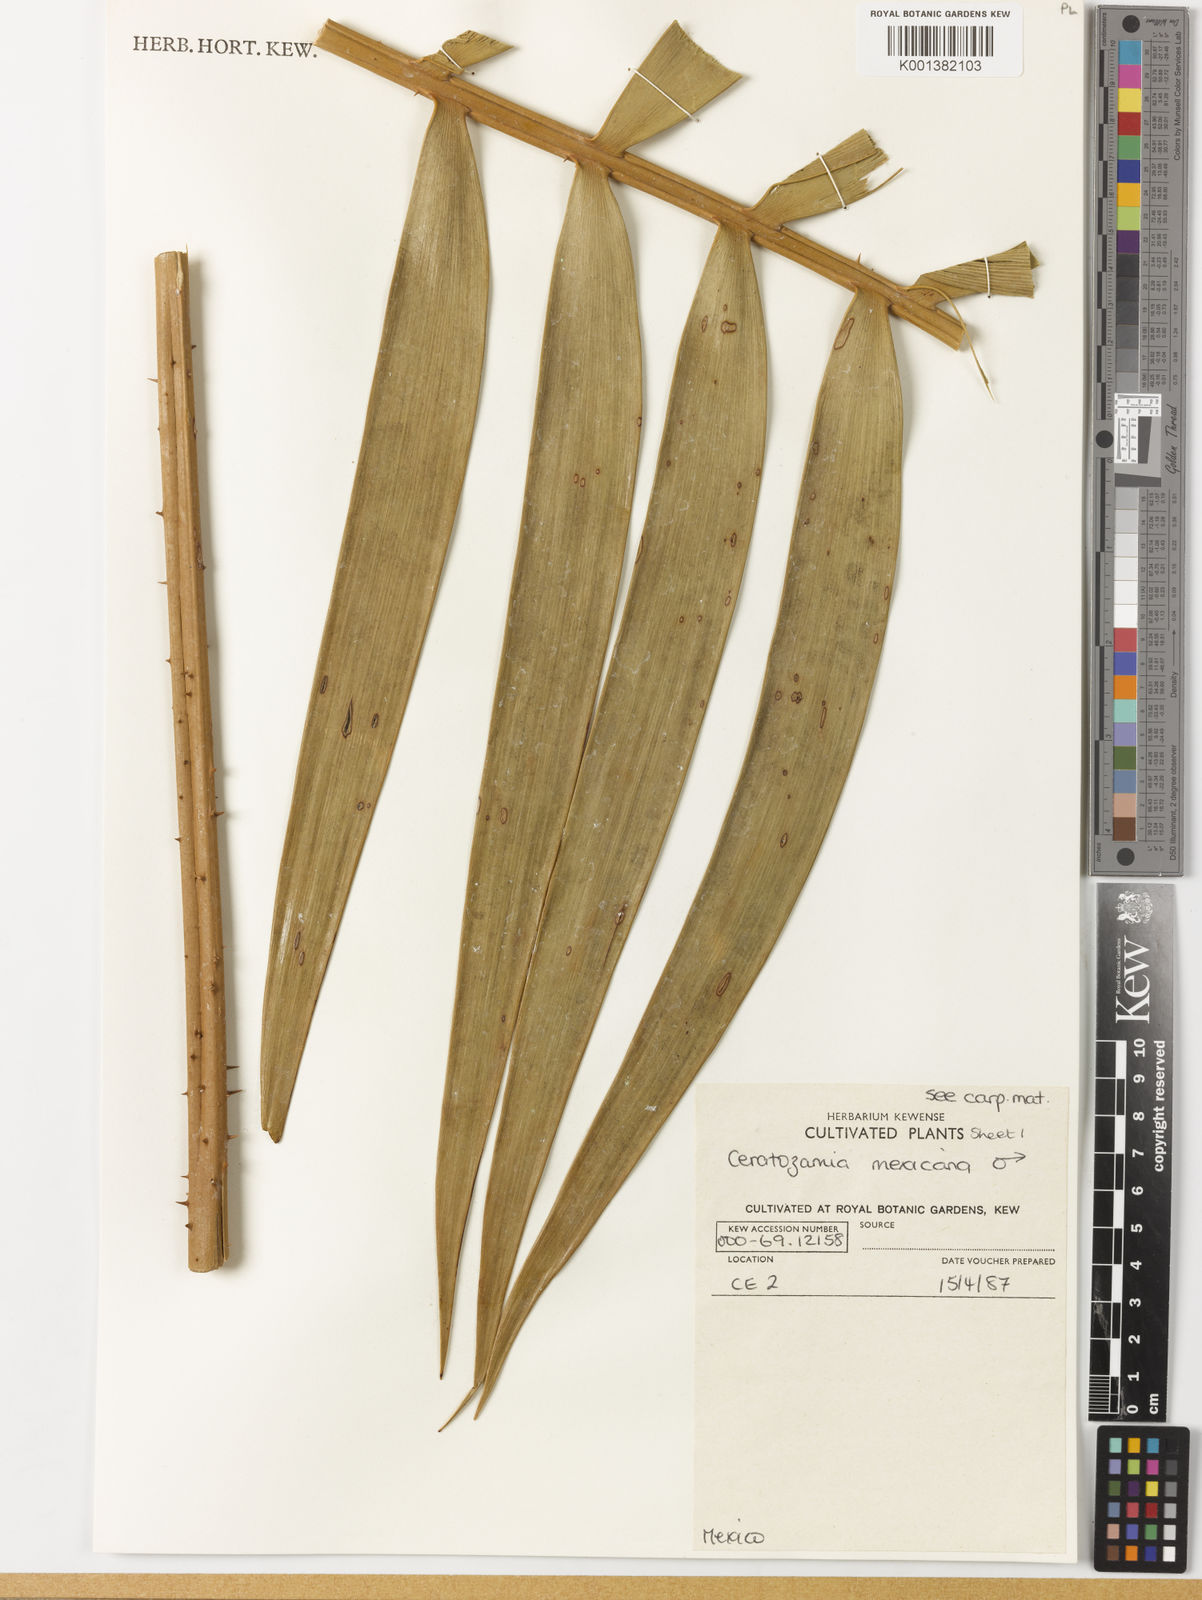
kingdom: Plantae
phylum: Tracheophyta
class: Cycadopsida
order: Cycadales
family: Zamiaceae
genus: Ceratozamia
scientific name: Ceratozamia mexicana
